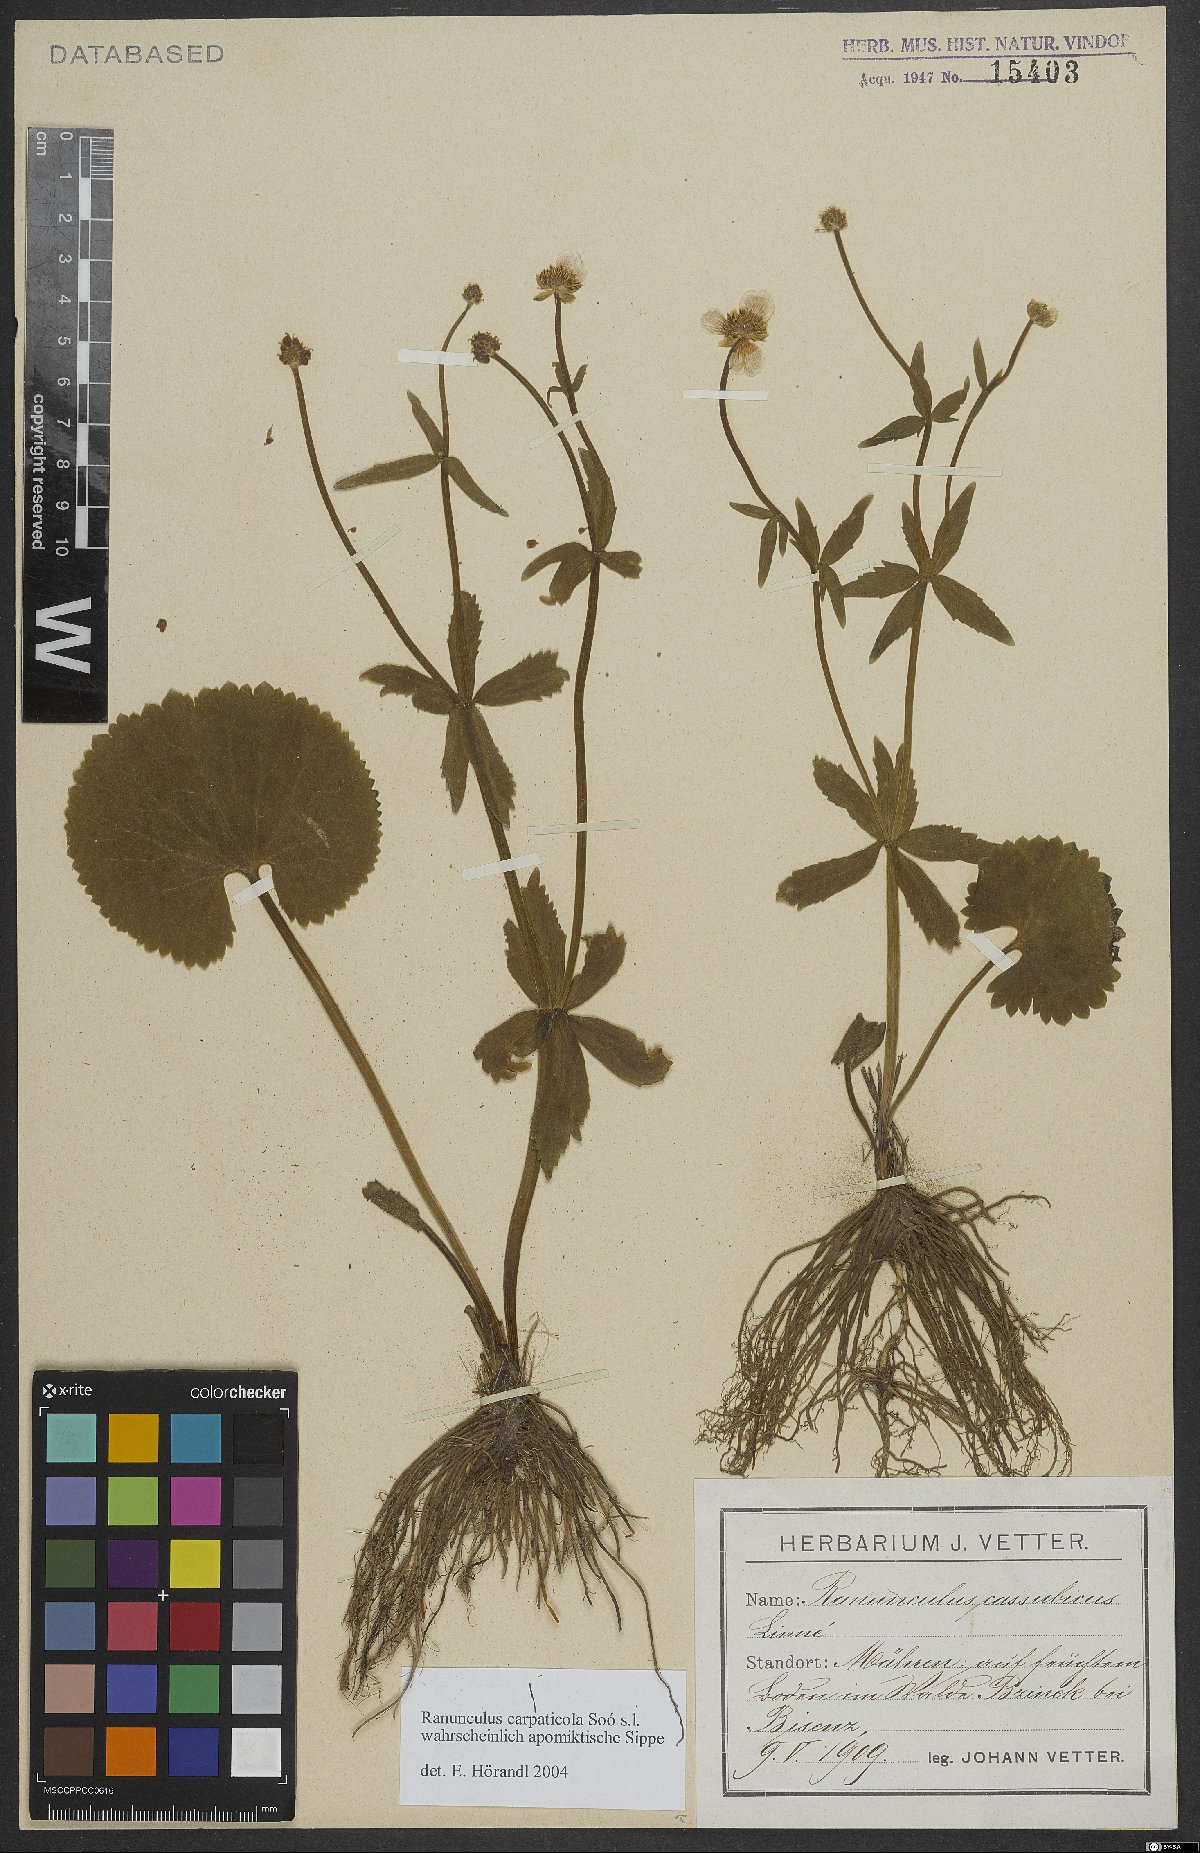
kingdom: Plantae
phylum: Tracheophyta
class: Magnoliopsida
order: Ranunculales
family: Ranunculaceae
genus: Ranunculus
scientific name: Ranunculus cassubicifolius
